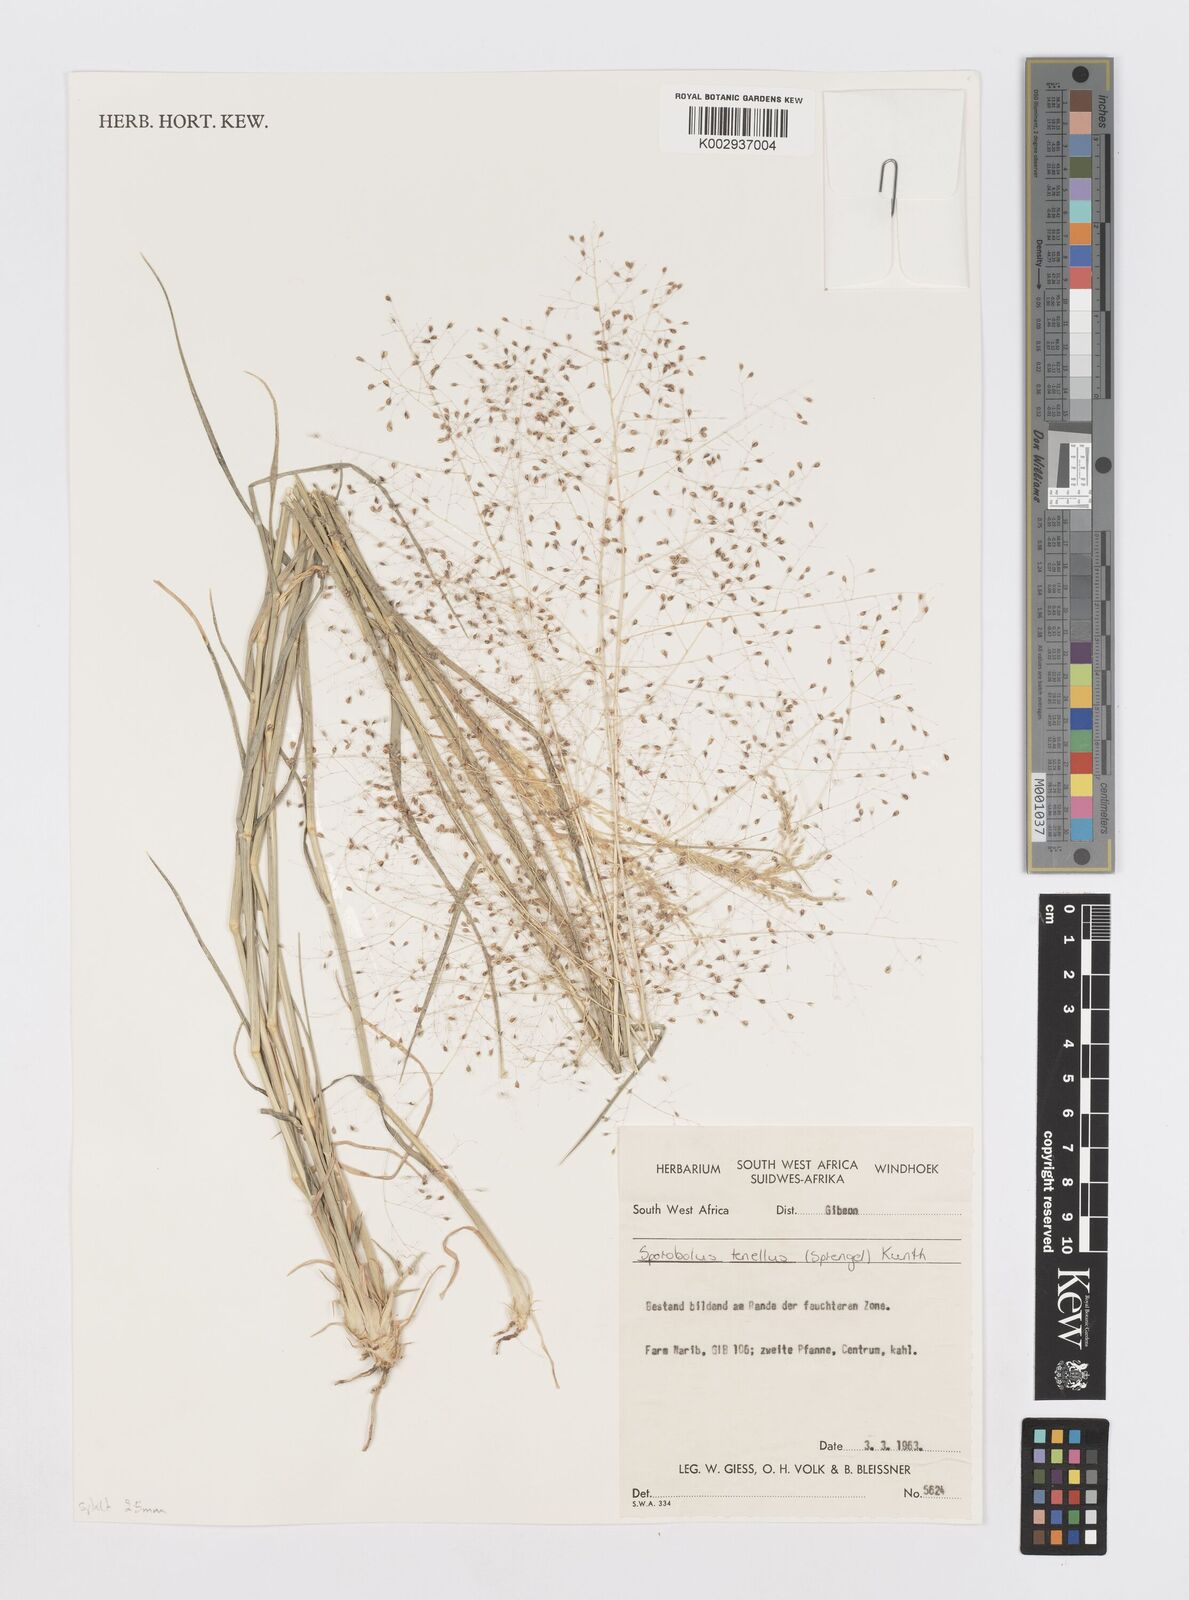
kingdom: Plantae
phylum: Tracheophyta
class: Liliopsida
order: Poales
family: Poaceae
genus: Sporobolus
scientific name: Sporobolus salsus
